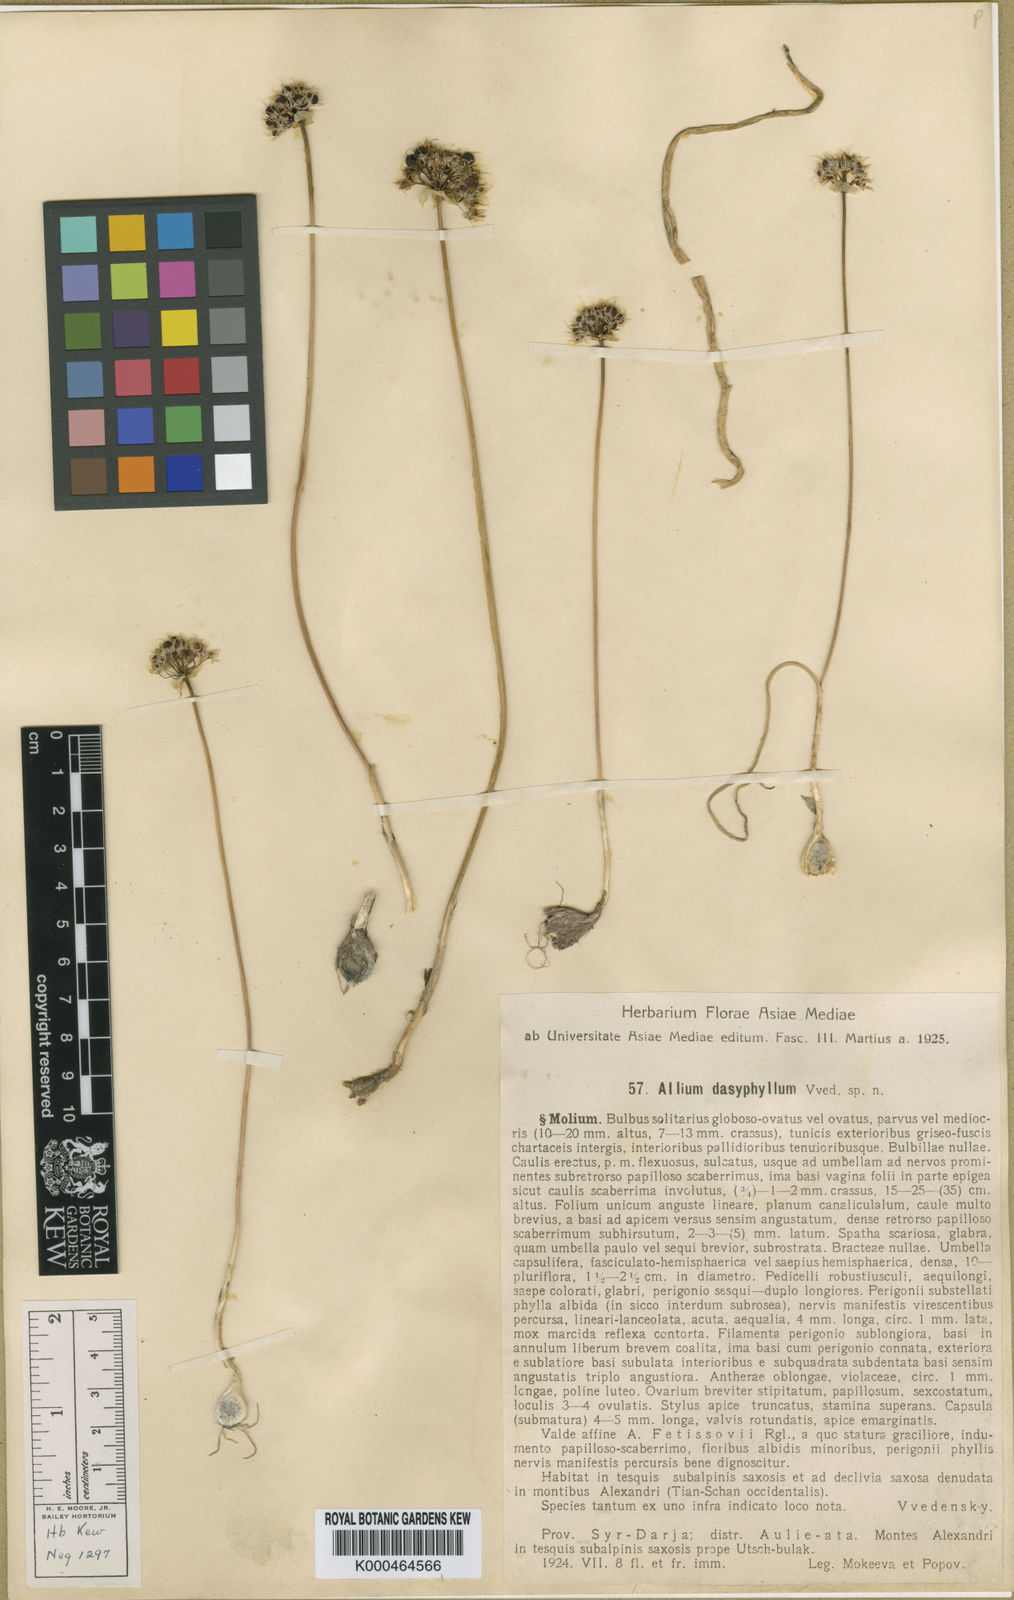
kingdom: Plantae
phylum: Tracheophyta
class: Liliopsida
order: Asparagales
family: Amaryllidaceae
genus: Allium
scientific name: Allium
